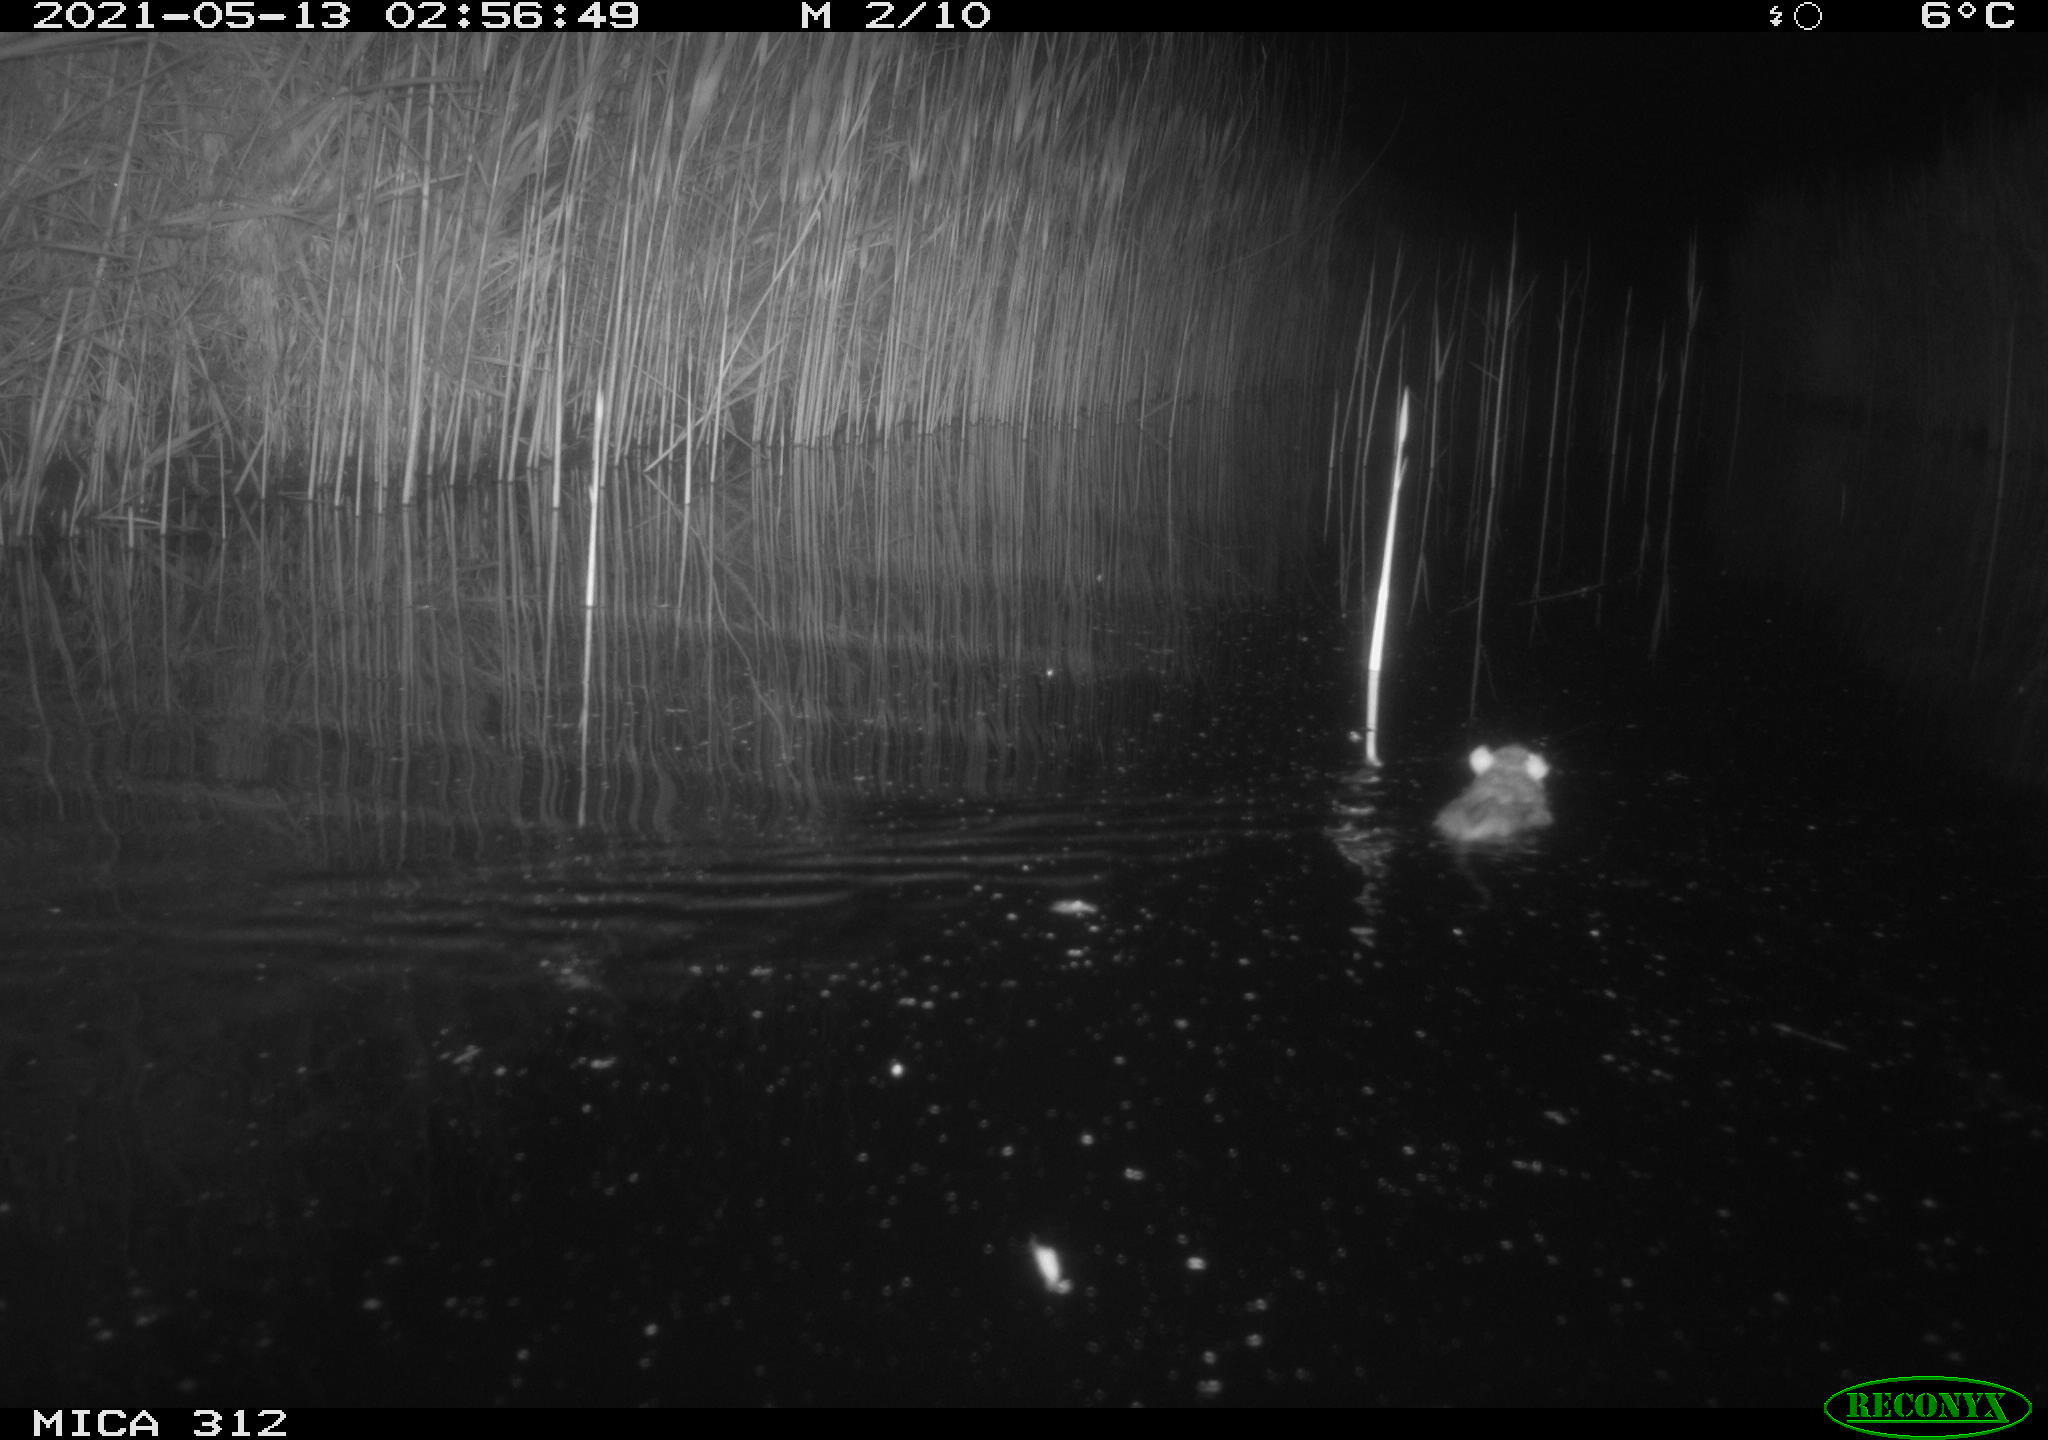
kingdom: Animalia
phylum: Chordata
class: Mammalia
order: Rodentia
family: Muridae
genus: Rattus
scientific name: Rattus norvegicus
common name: Brown rat
